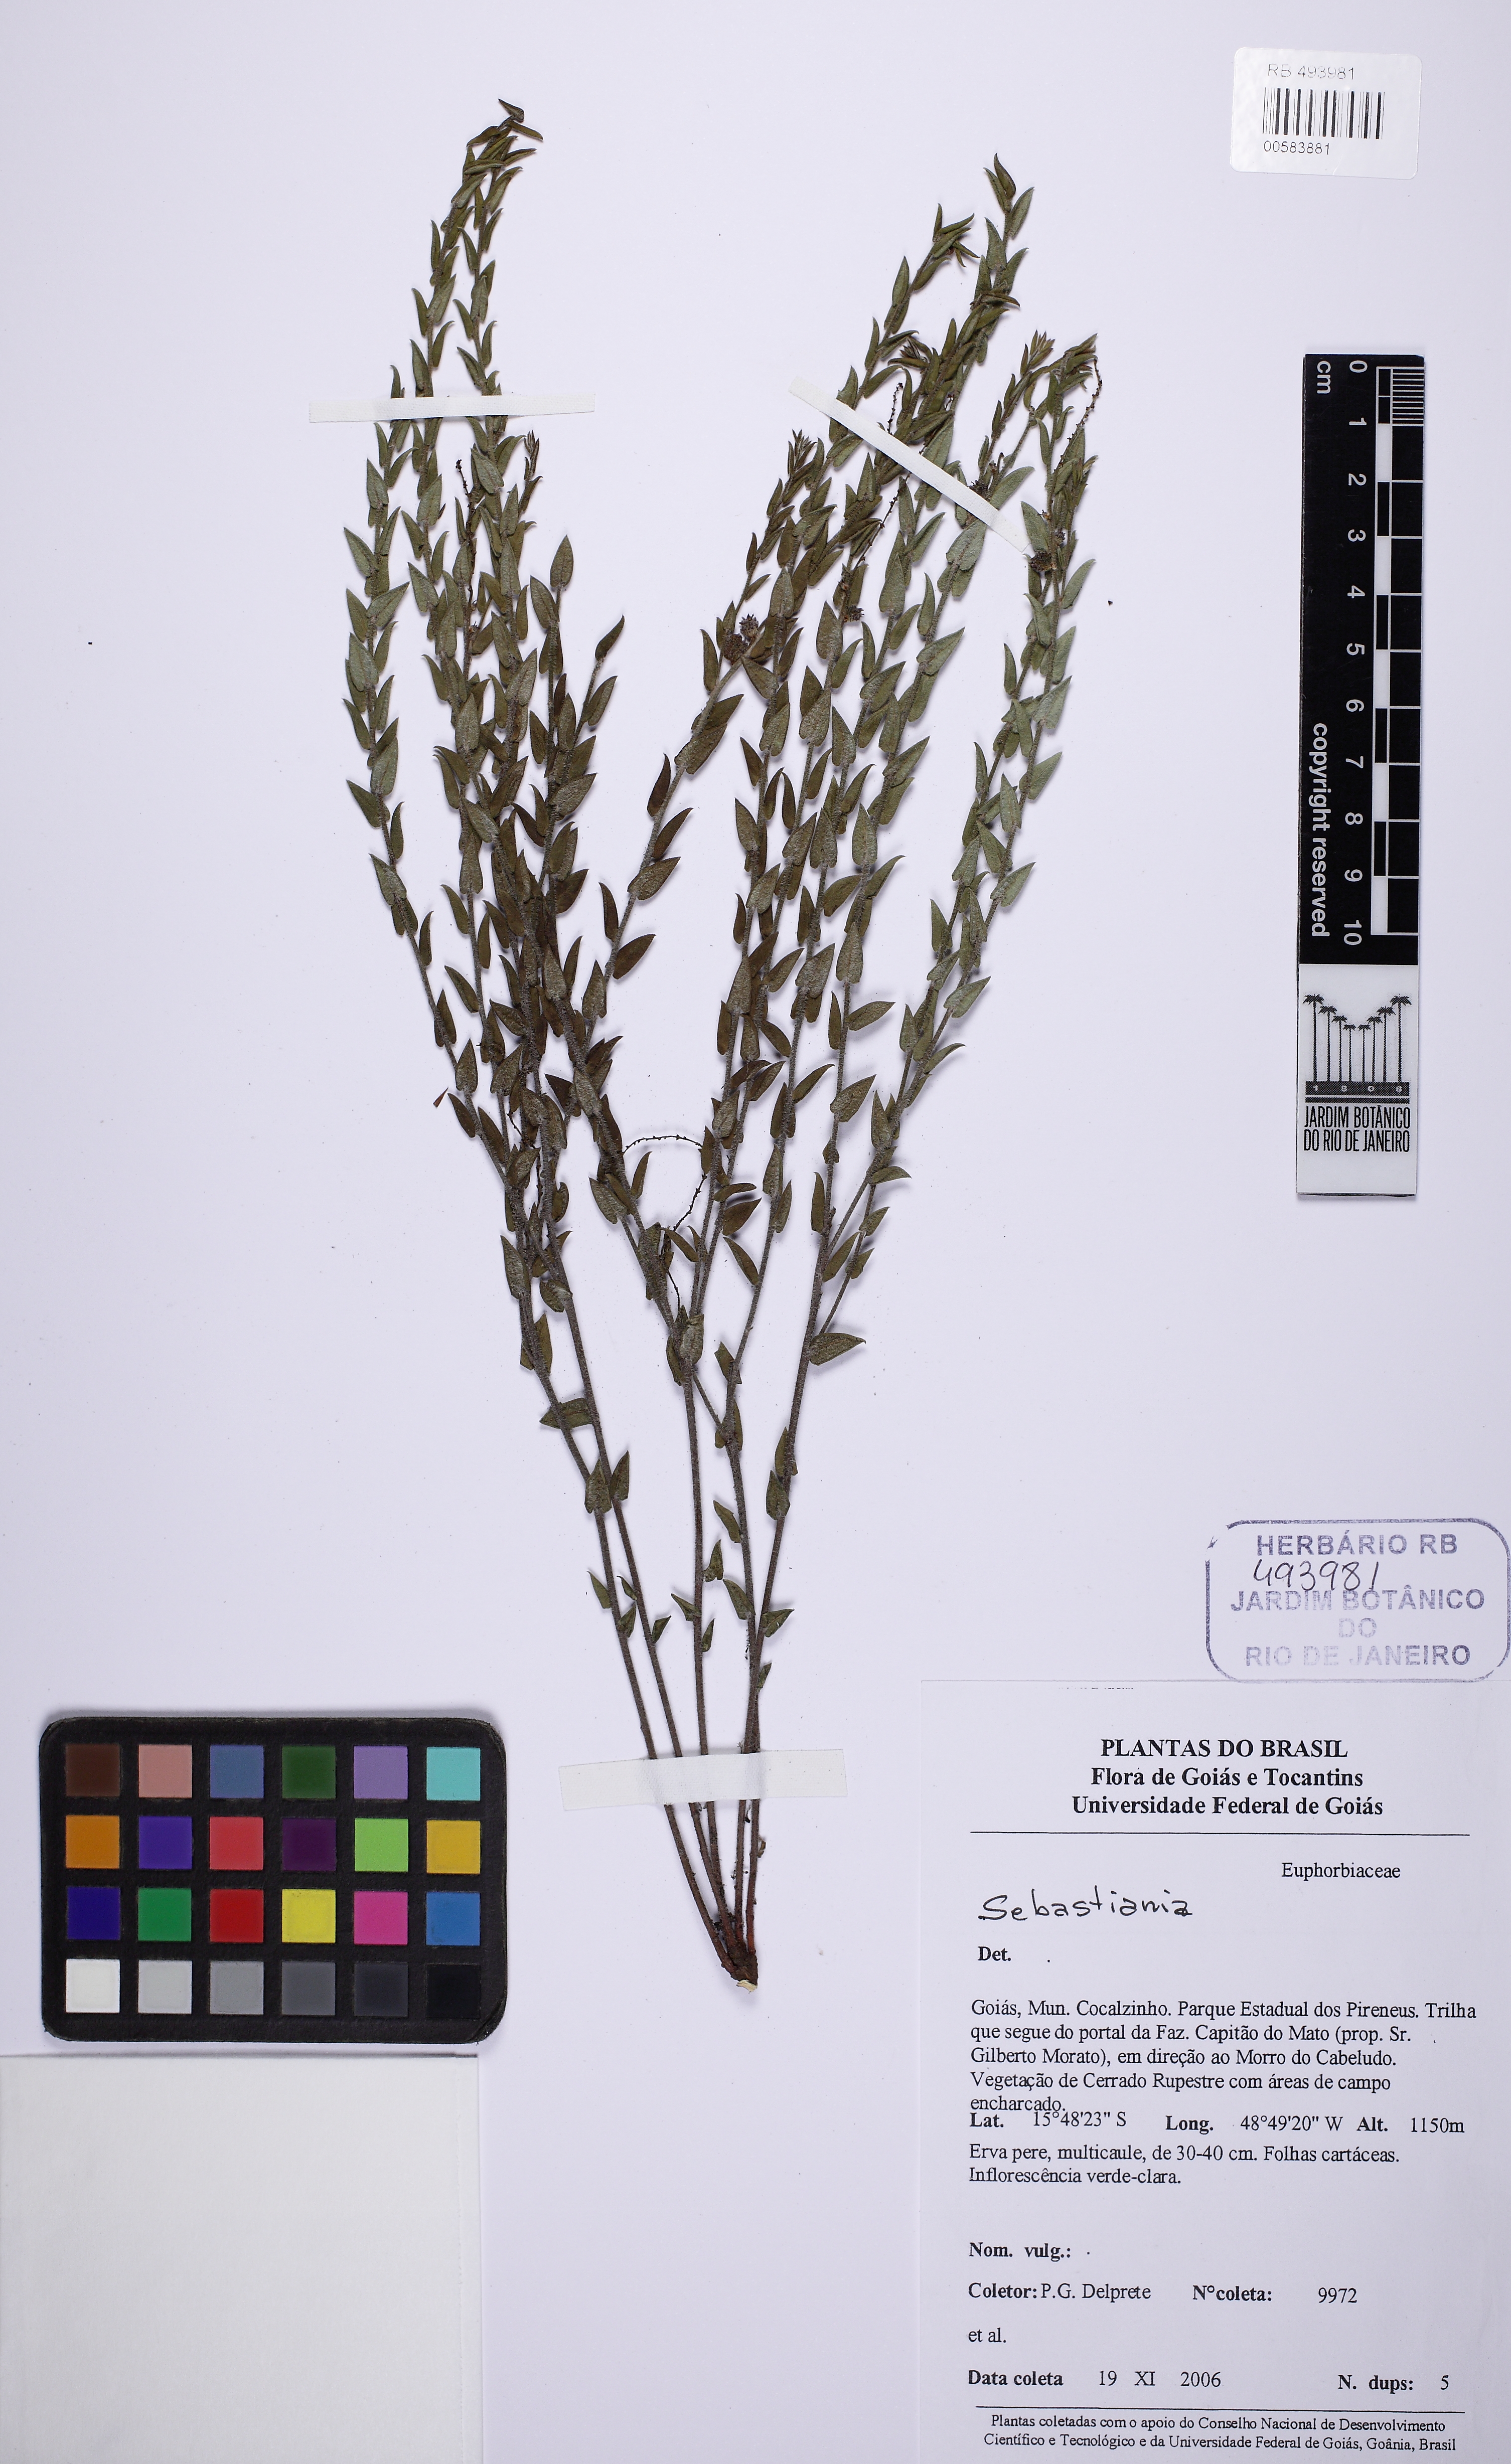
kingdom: Plantae
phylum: Tracheophyta
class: Magnoliopsida
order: Malpighiales
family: Euphorbiaceae
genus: Microstachys
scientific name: Microstachys
